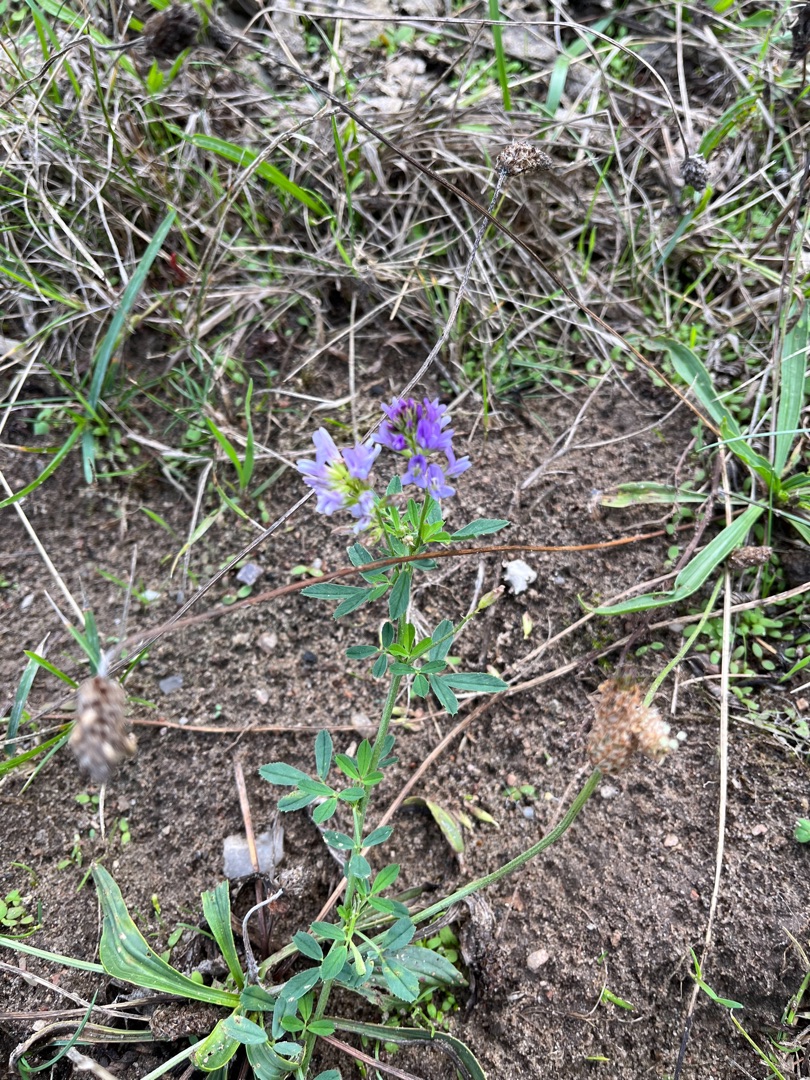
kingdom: Plantae
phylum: Tracheophyta
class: Magnoliopsida
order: Fabales
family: Fabaceae
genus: Medicago
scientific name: Medicago sativa
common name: Lucerne
